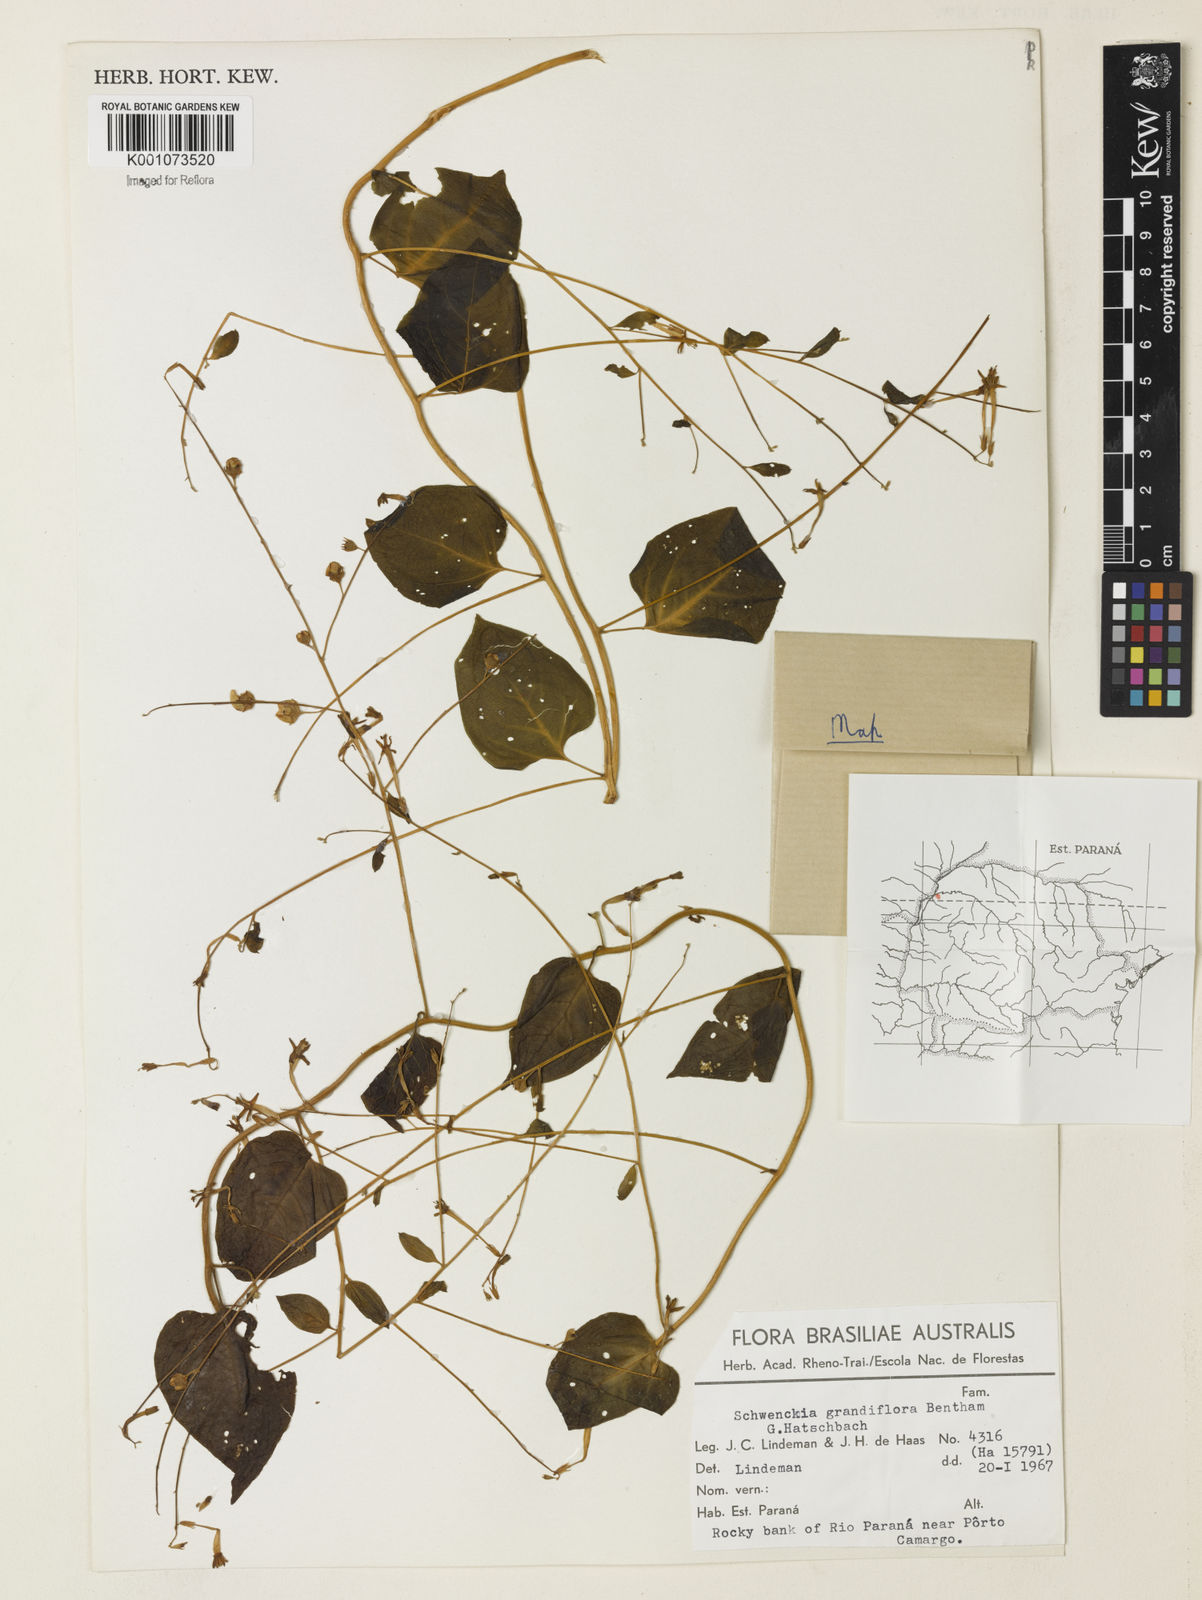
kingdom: Plantae
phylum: Tracheophyta
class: Magnoliopsida
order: Solanales
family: Solanaceae
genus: Schwenckia
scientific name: Schwenckia grandiflora
